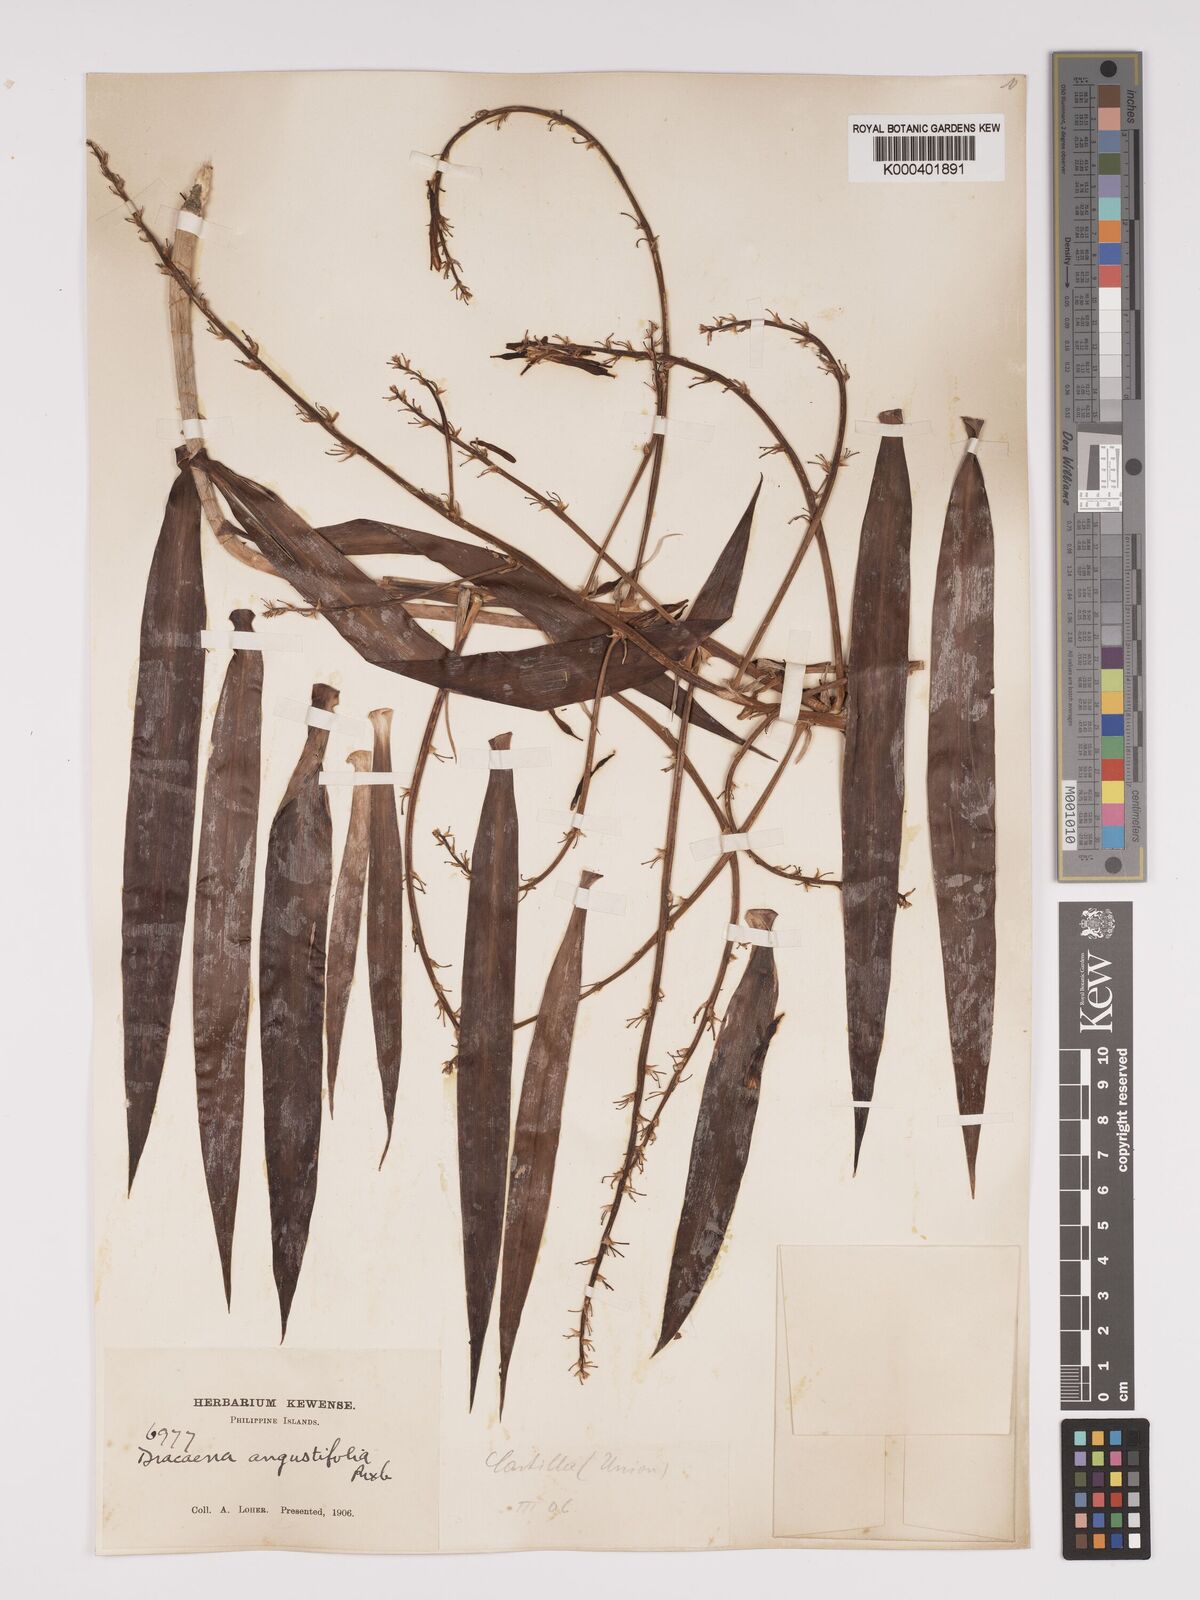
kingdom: Plantae
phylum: Tracheophyta
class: Liliopsida
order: Asparagales
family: Asparagaceae
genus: Dracaena
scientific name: Dracaena angustifolia
